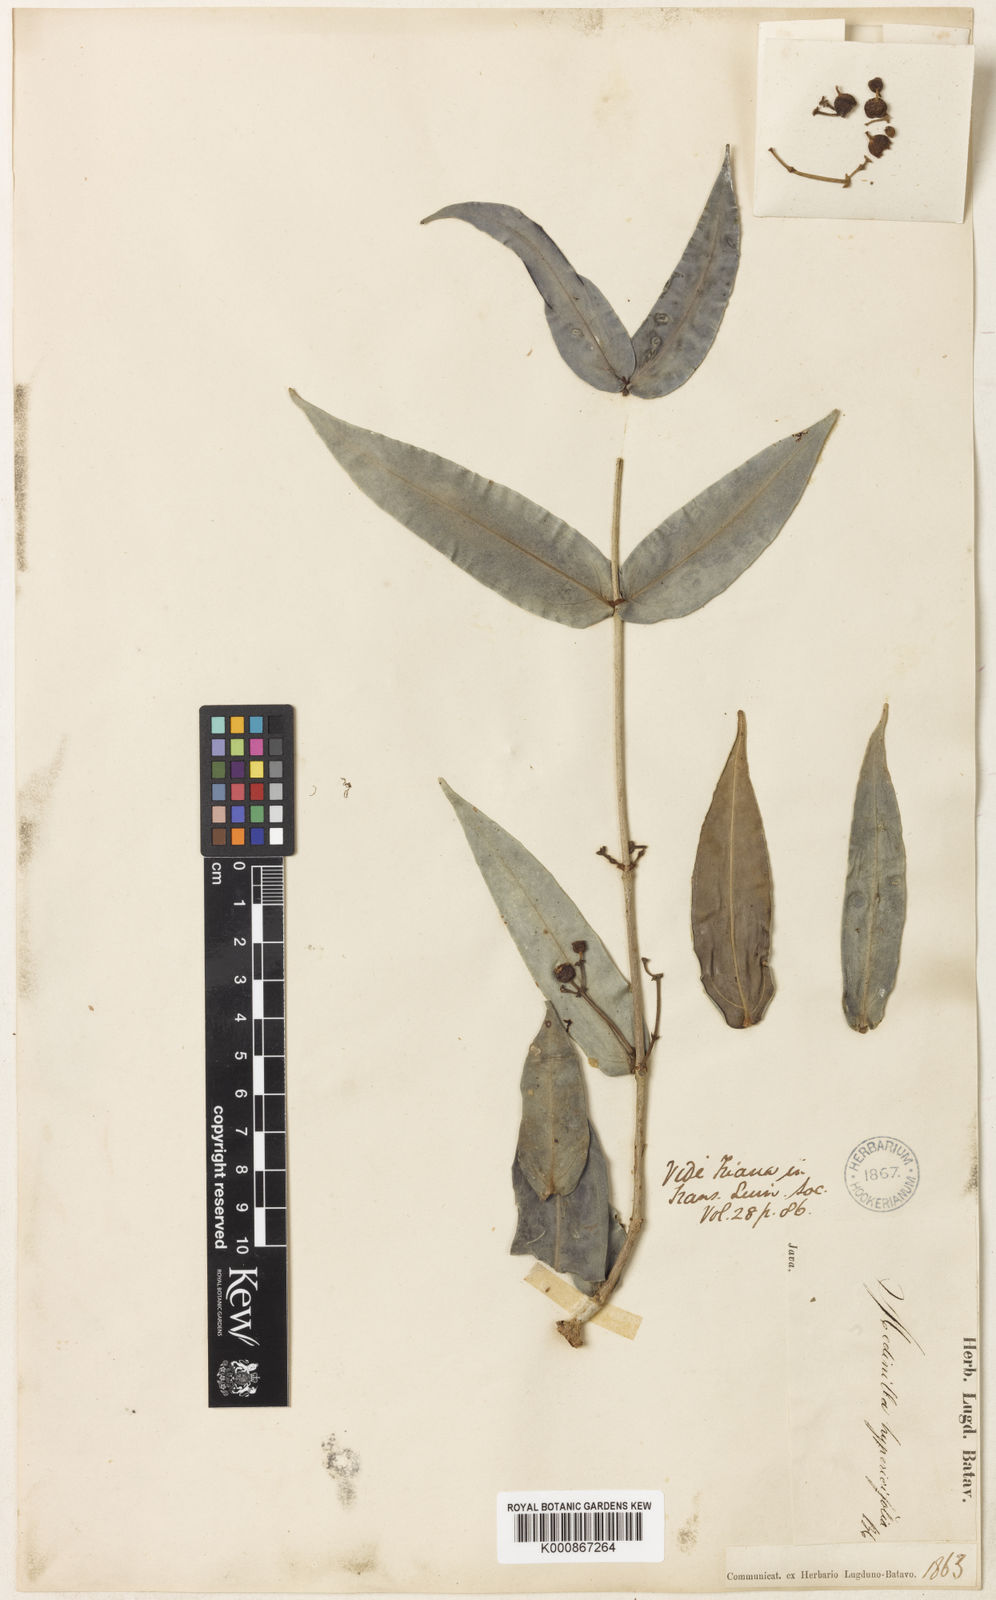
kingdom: Plantae
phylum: Tracheophyta
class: Magnoliopsida
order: Myrtales
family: Melastomataceae
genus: Medinilla
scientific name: Medinilla hypericifolia
